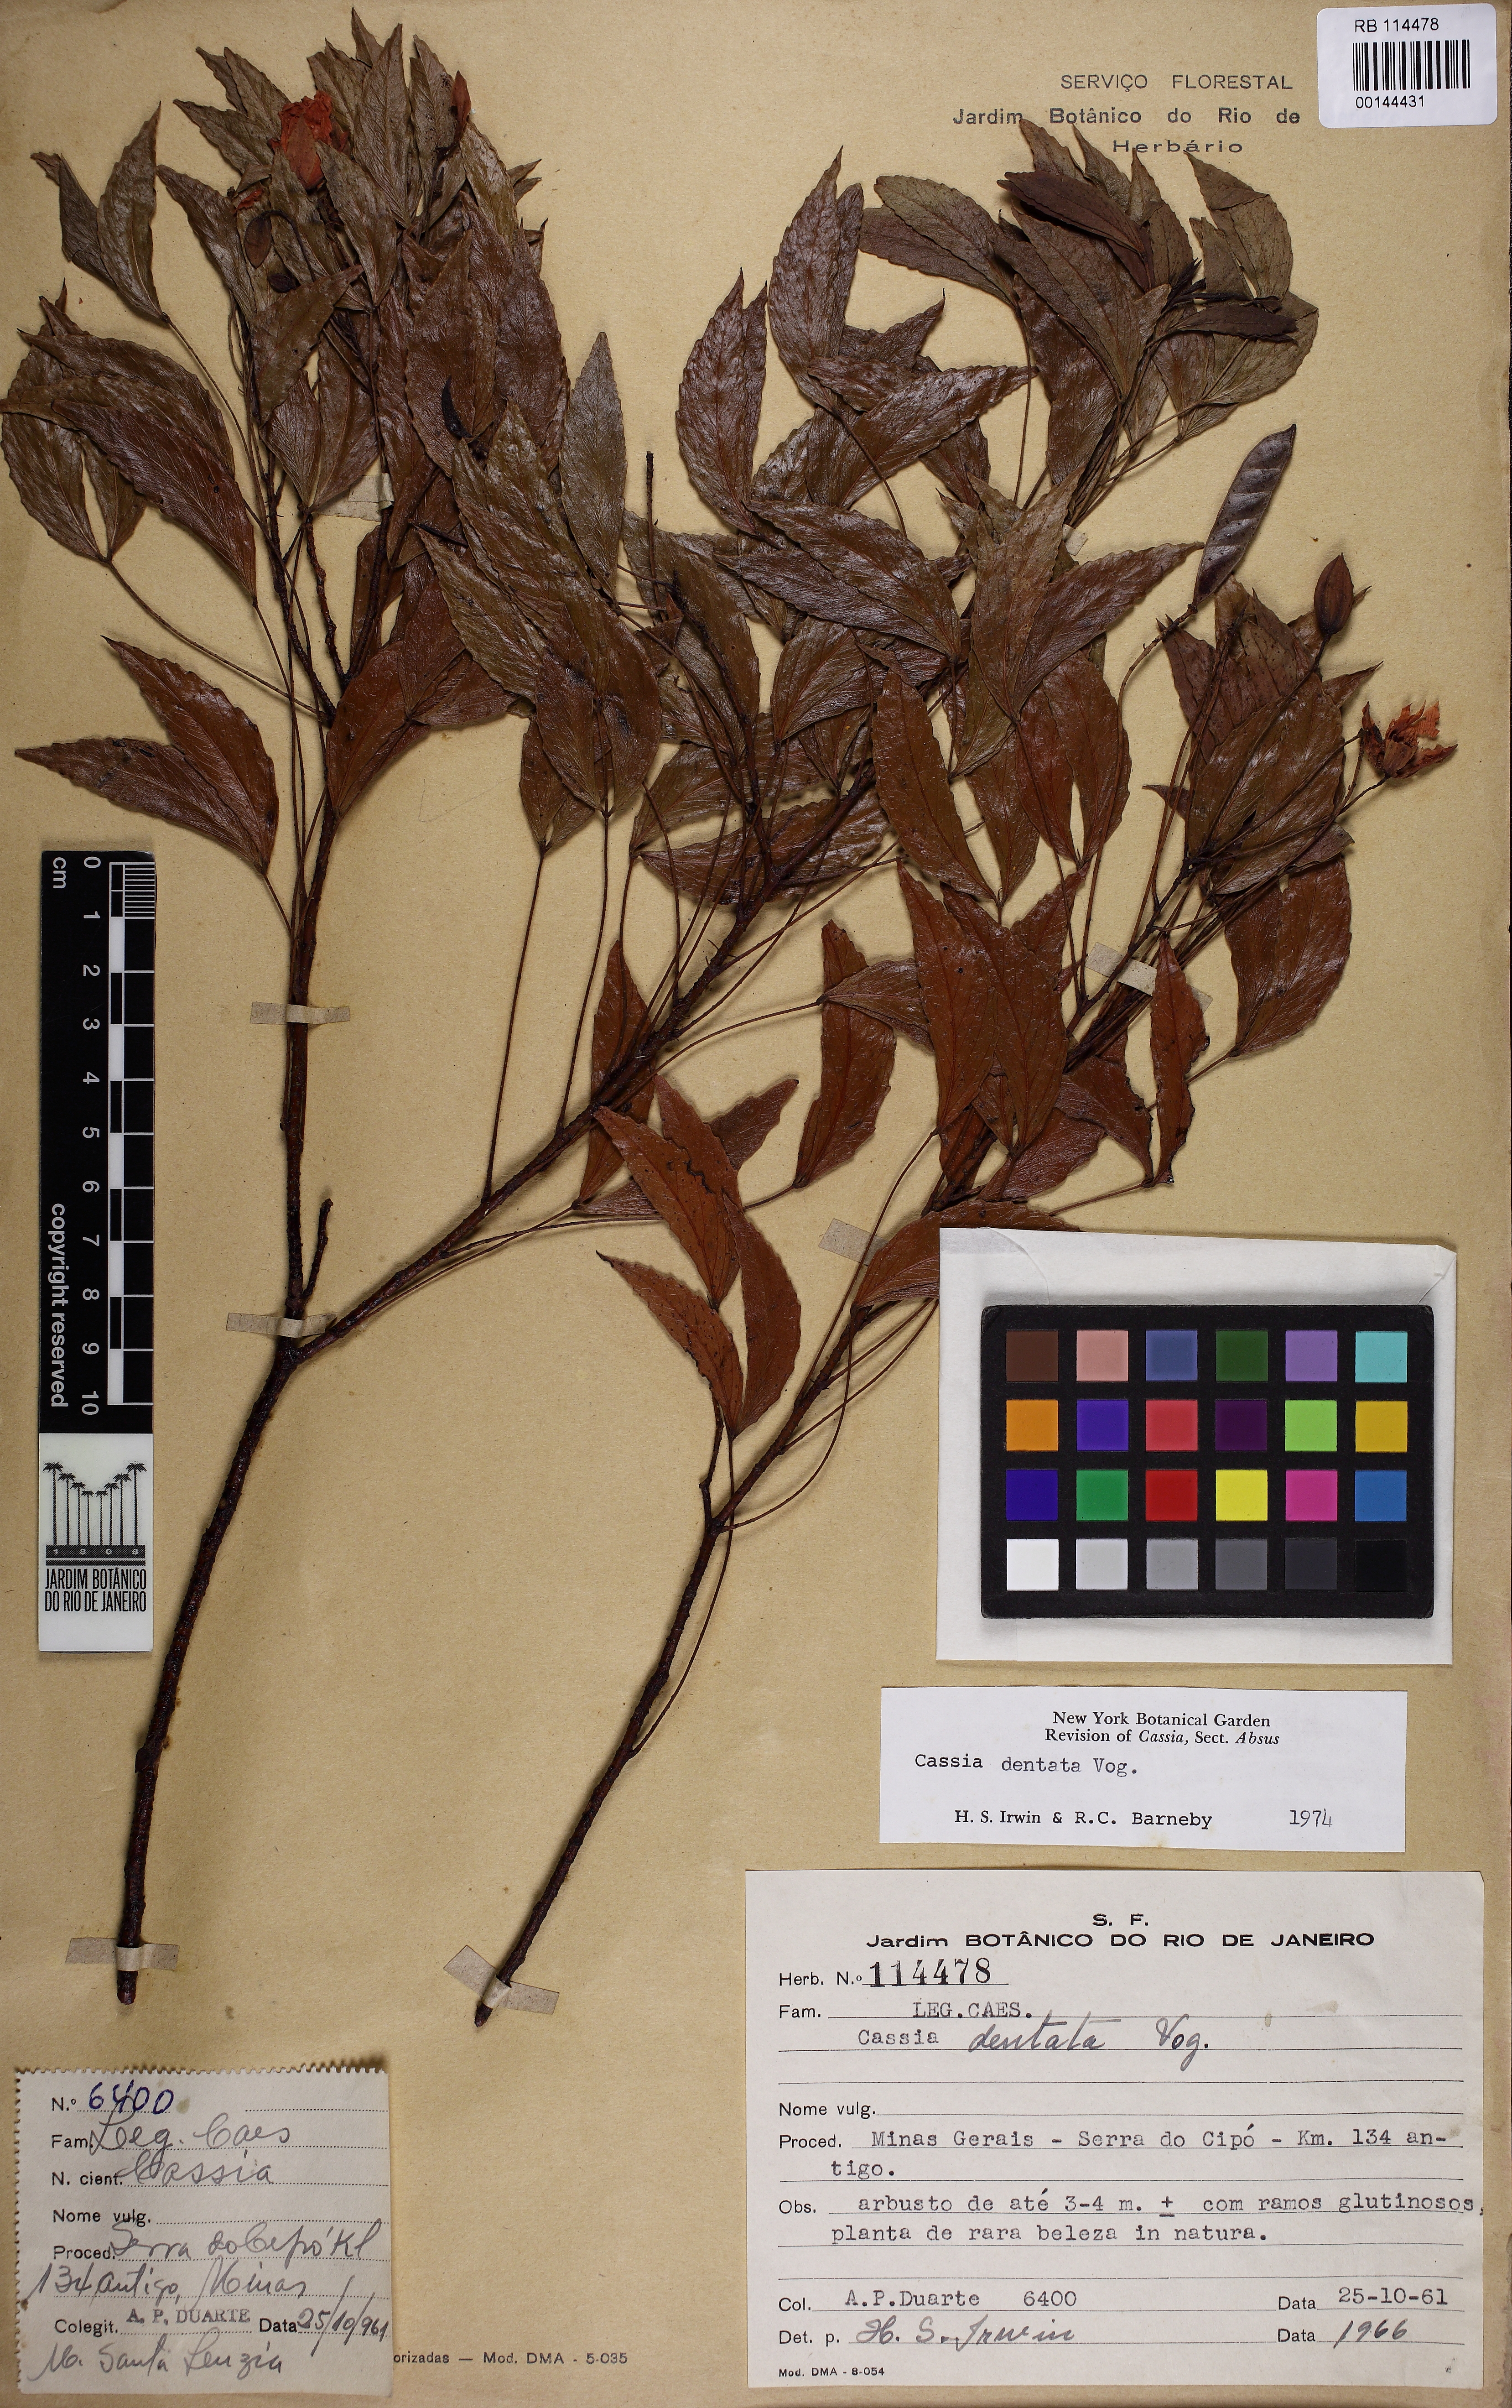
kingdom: Plantae
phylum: Tracheophyta
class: Magnoliopsida
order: Fabales
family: Fabaceae
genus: Chamaecrista
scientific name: Chamaecrista dentata
